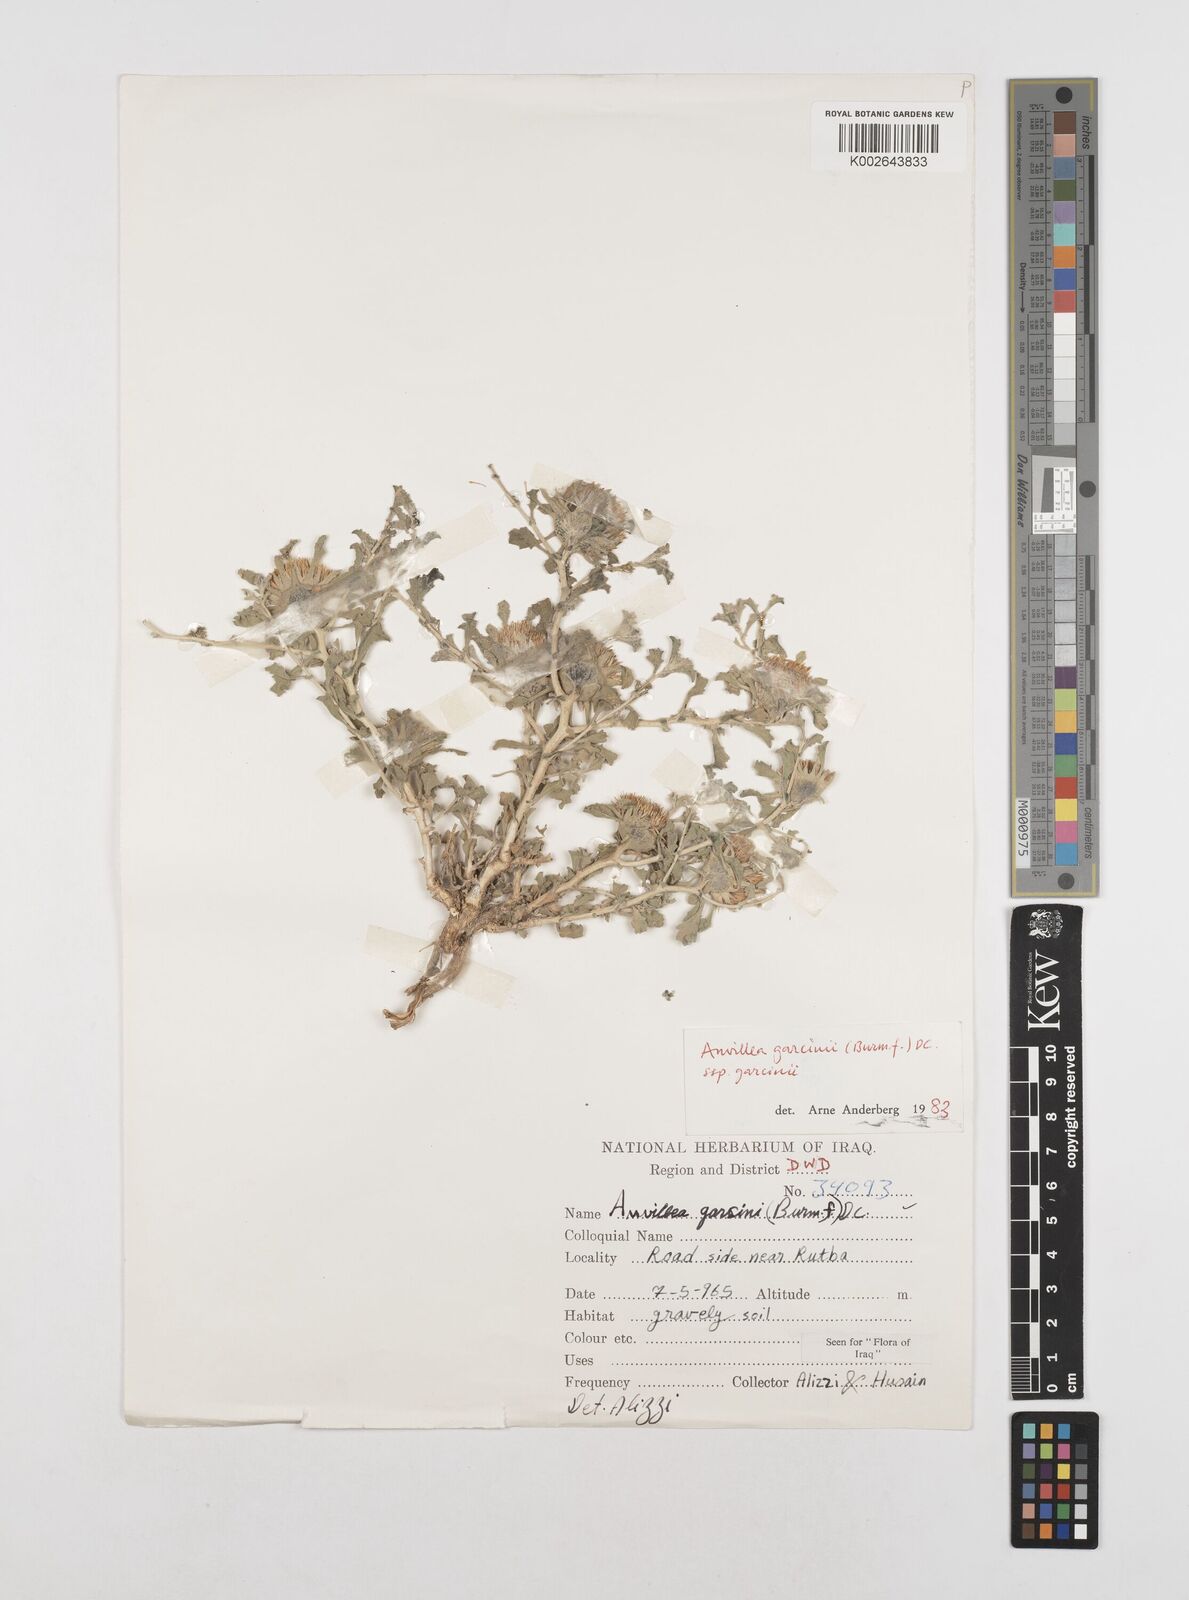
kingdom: Plantae
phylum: Tracheophyta
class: Magnoliopsida
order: Asterales
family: Asteraceae
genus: Anvillea
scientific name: Anvillea garcinii
